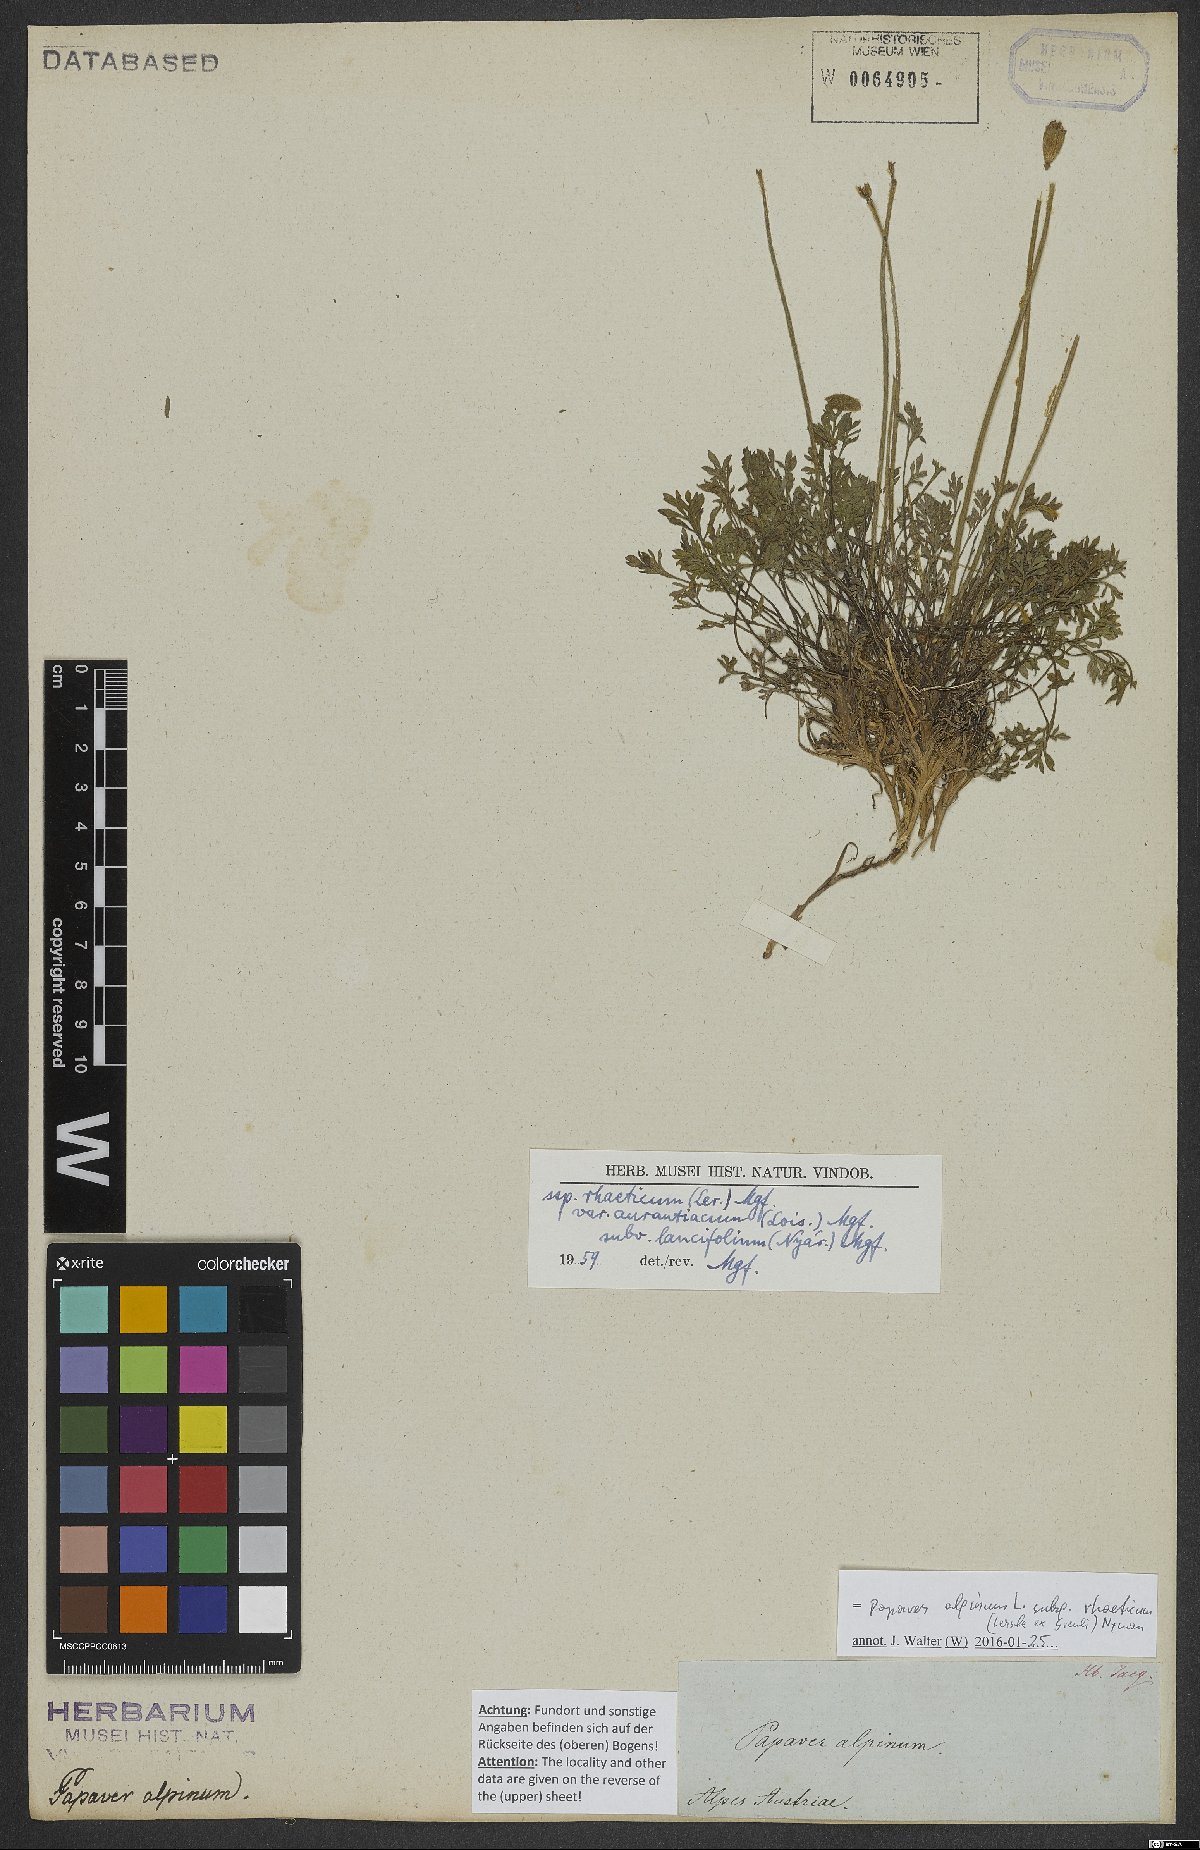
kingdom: Plantae
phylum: Tracheophyta
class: Magnoliopsida
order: Ranunculales
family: Papaveraceae
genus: Papaver
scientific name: Papaver alpinum
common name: Austrian poppy
